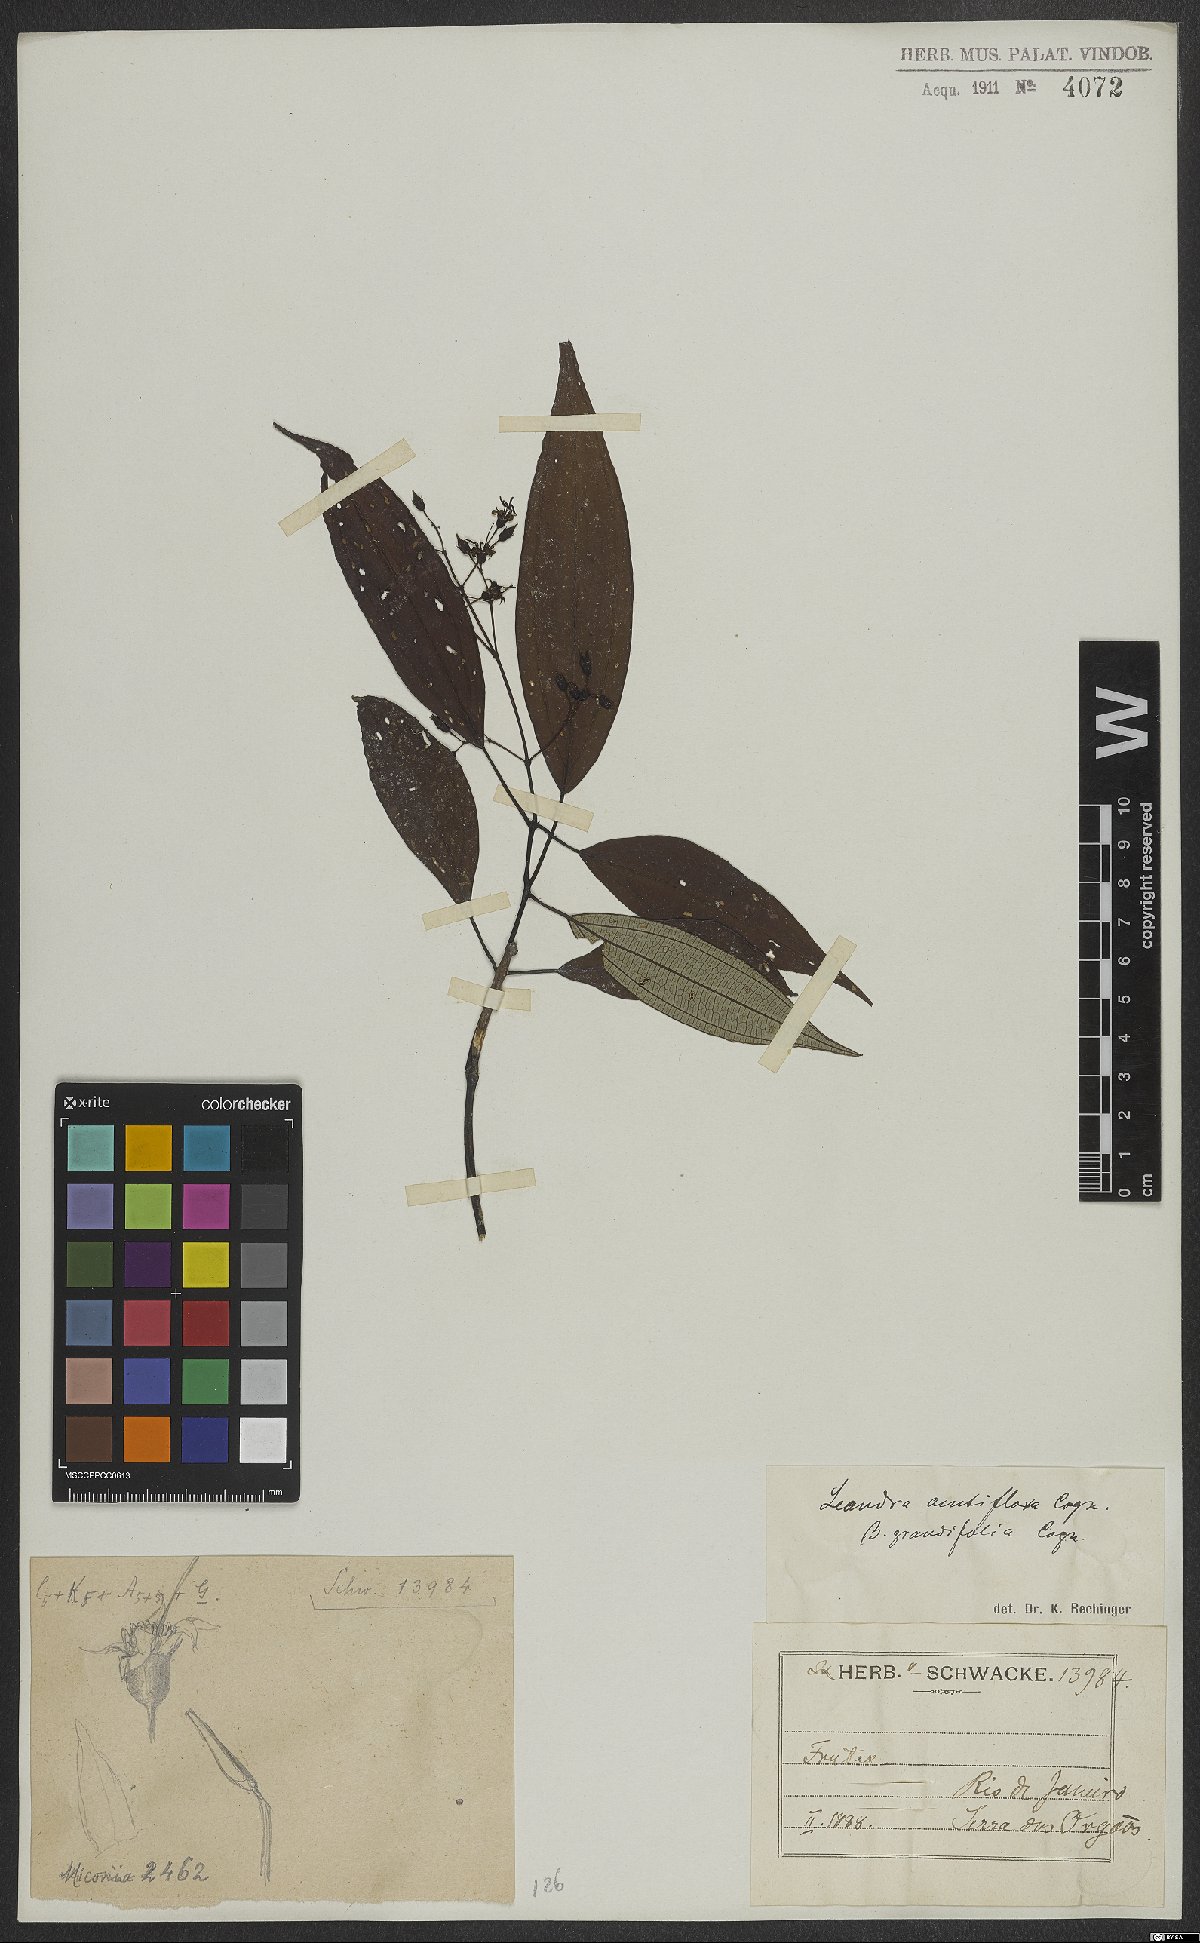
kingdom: Plantae
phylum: Tracheophyta
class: Magnoliopsida
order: Myrtales
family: Melastomataceae
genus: Miconia
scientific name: Miconia acutiflora
